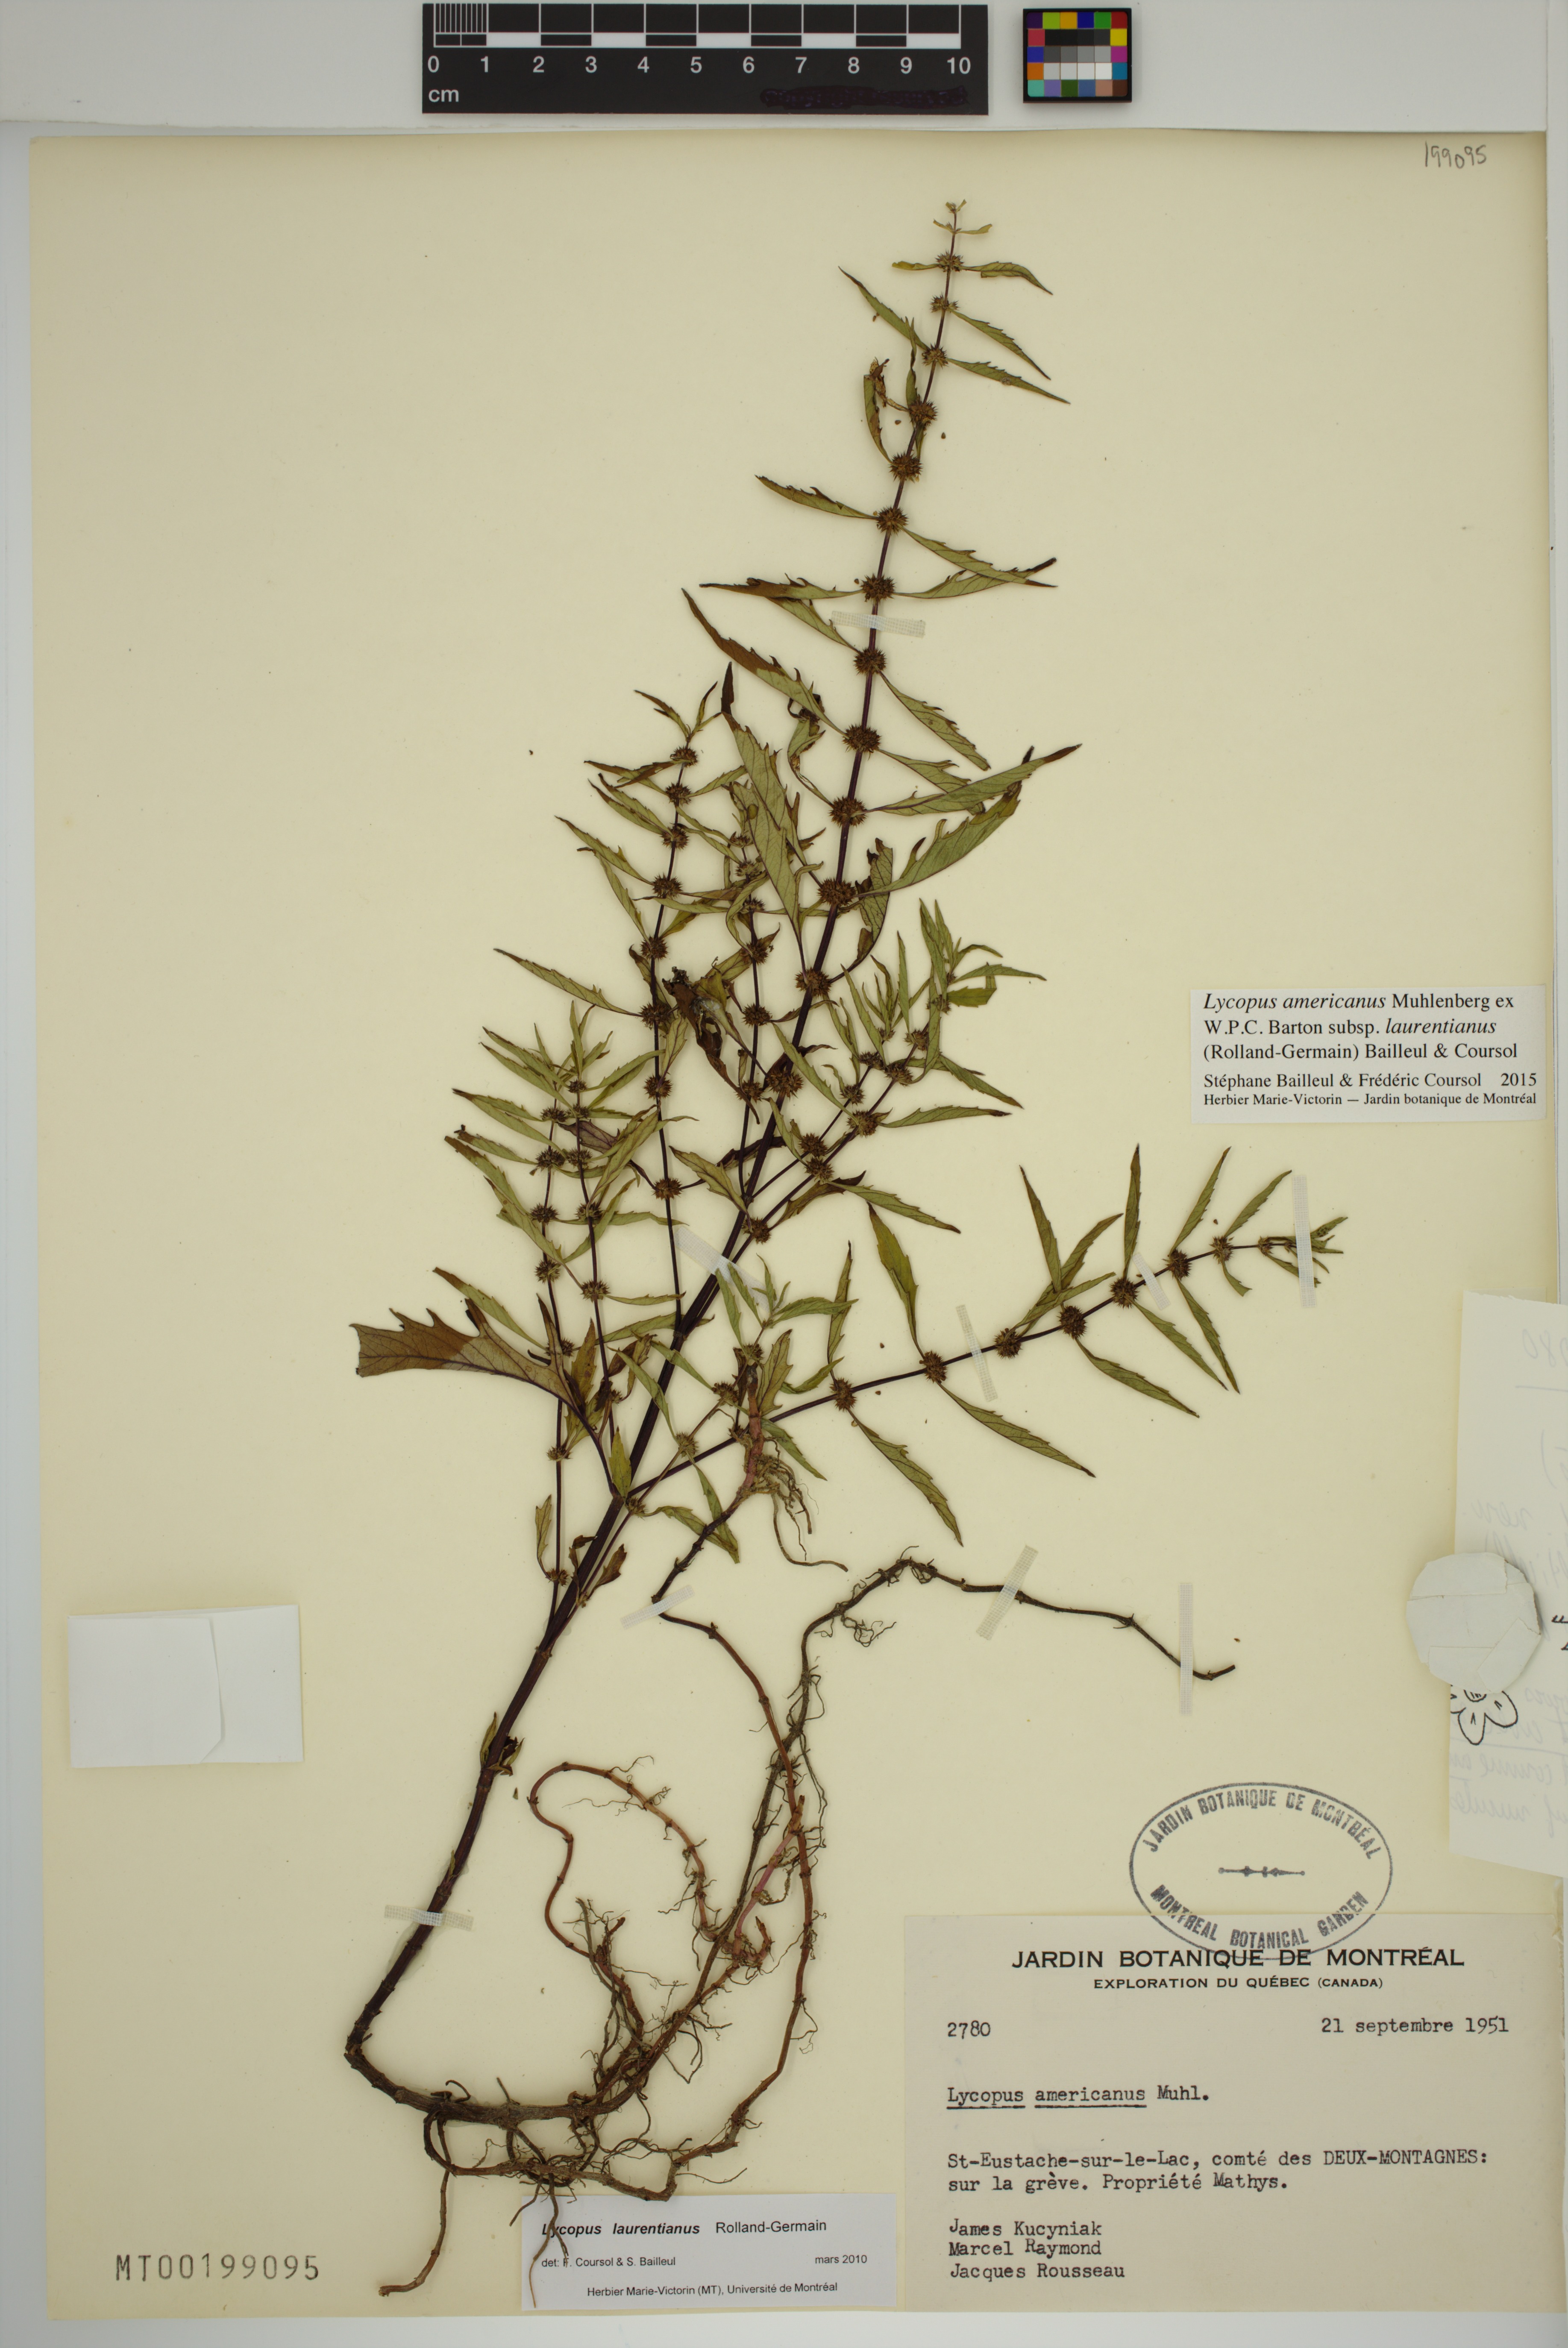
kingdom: Plantae
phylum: Tracheophyta
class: Magnoliopsida
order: Lamiales
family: Lamiaceae
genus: Lycopus
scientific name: Lycopus americanus
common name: American bugleweed
